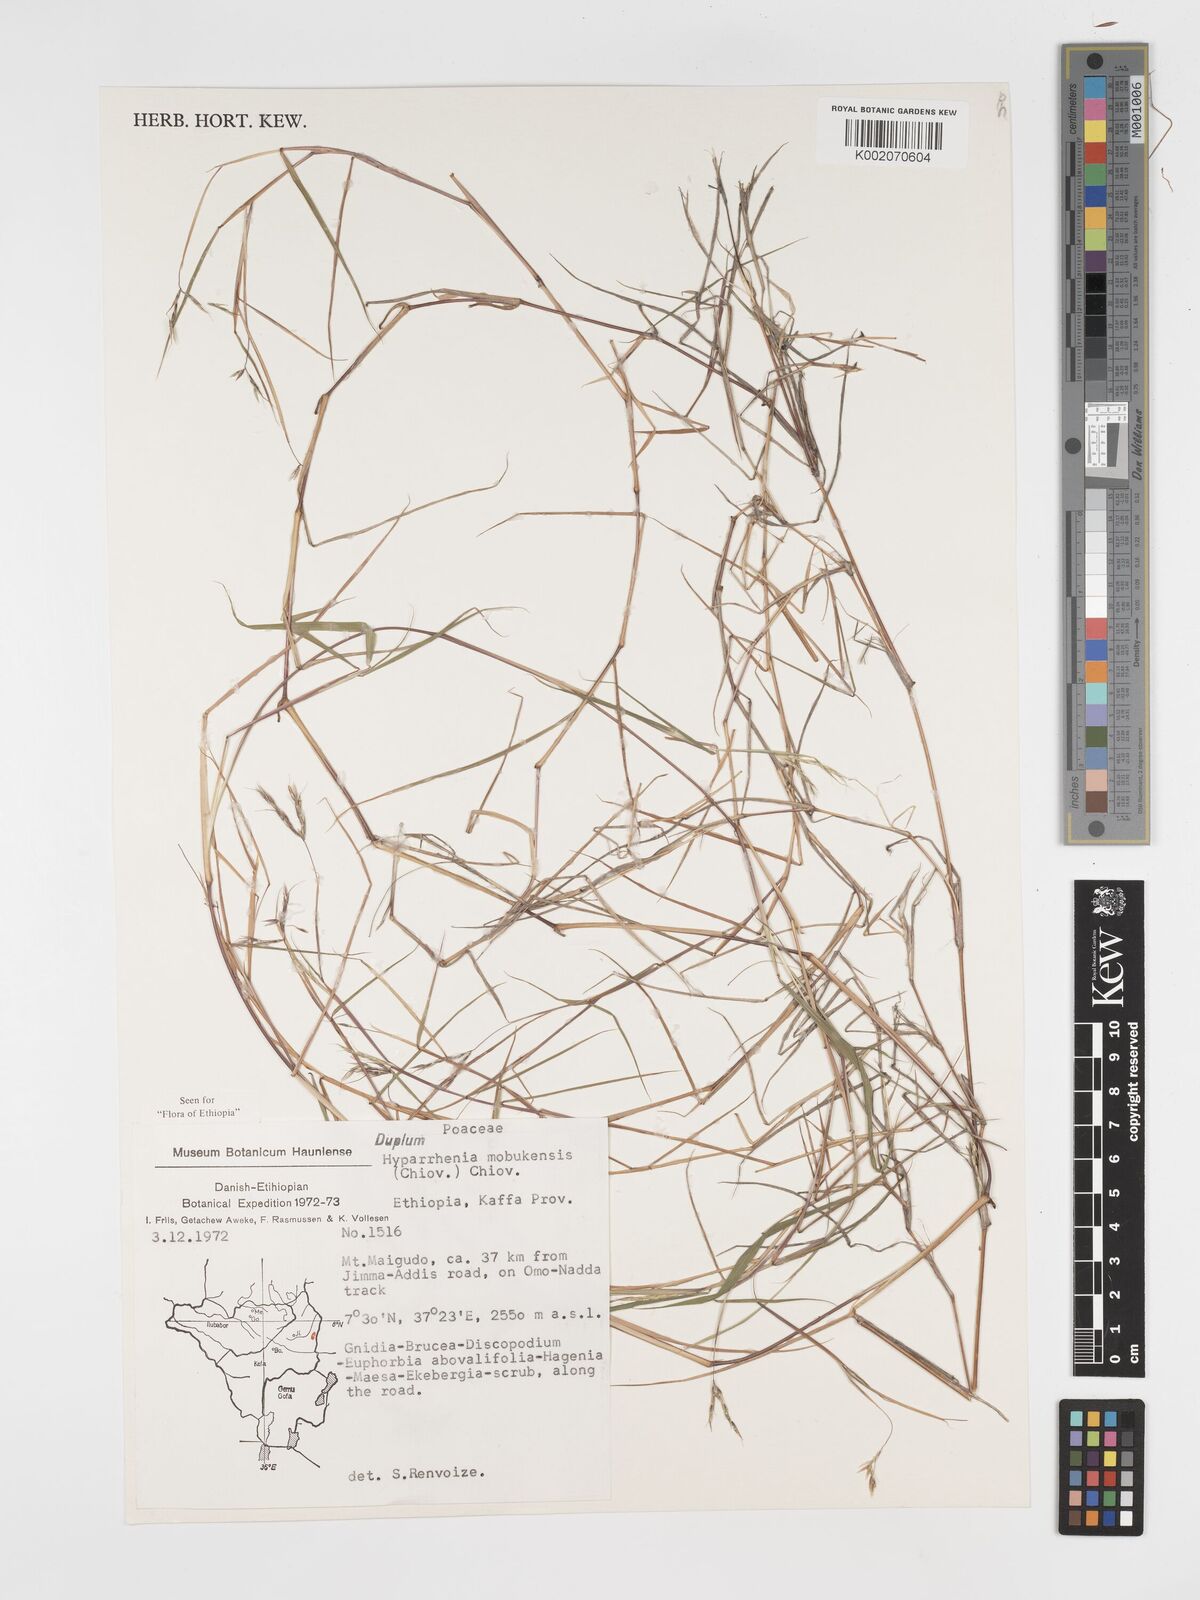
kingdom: Plantae
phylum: Tracheophyta
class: Liliopsida
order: Poales
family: Poaceae
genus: Hyparrhenia
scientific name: Hyparrhenia mobukensis
